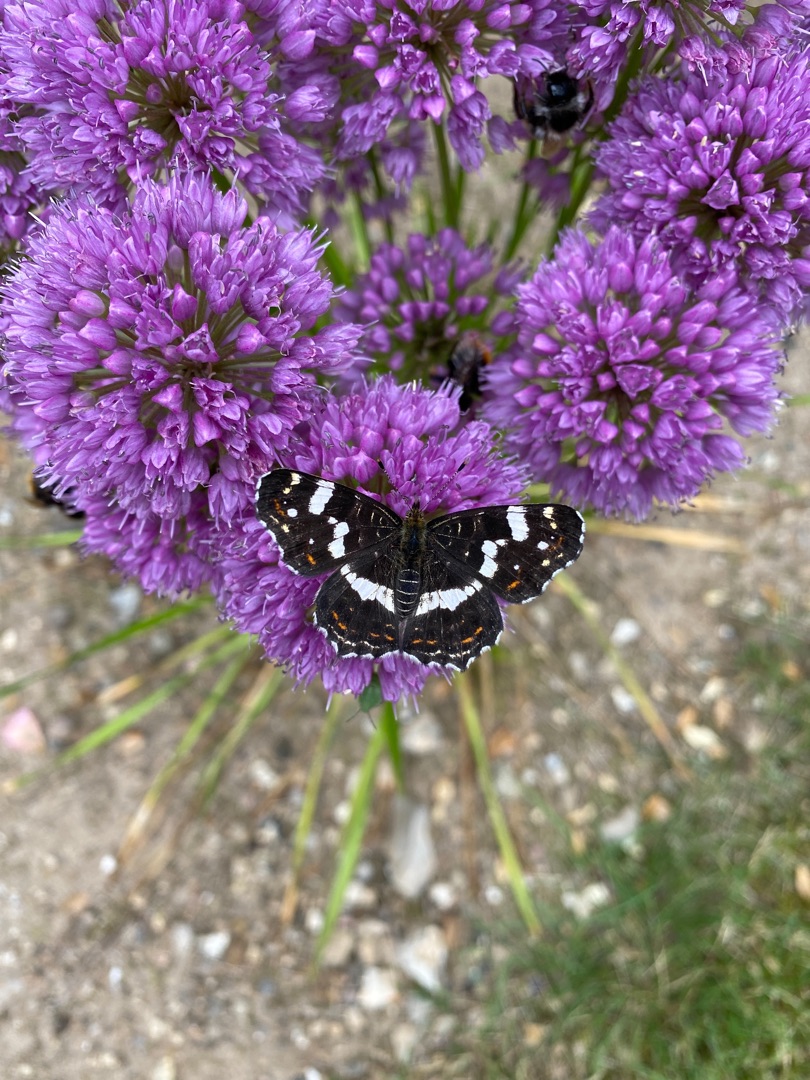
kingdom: Animalia
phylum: Arthropoda
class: Insecta
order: Lepidoptera
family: Nymphalidae
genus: Araschnia
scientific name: Araschnia levana
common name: Nældesommerfugl
